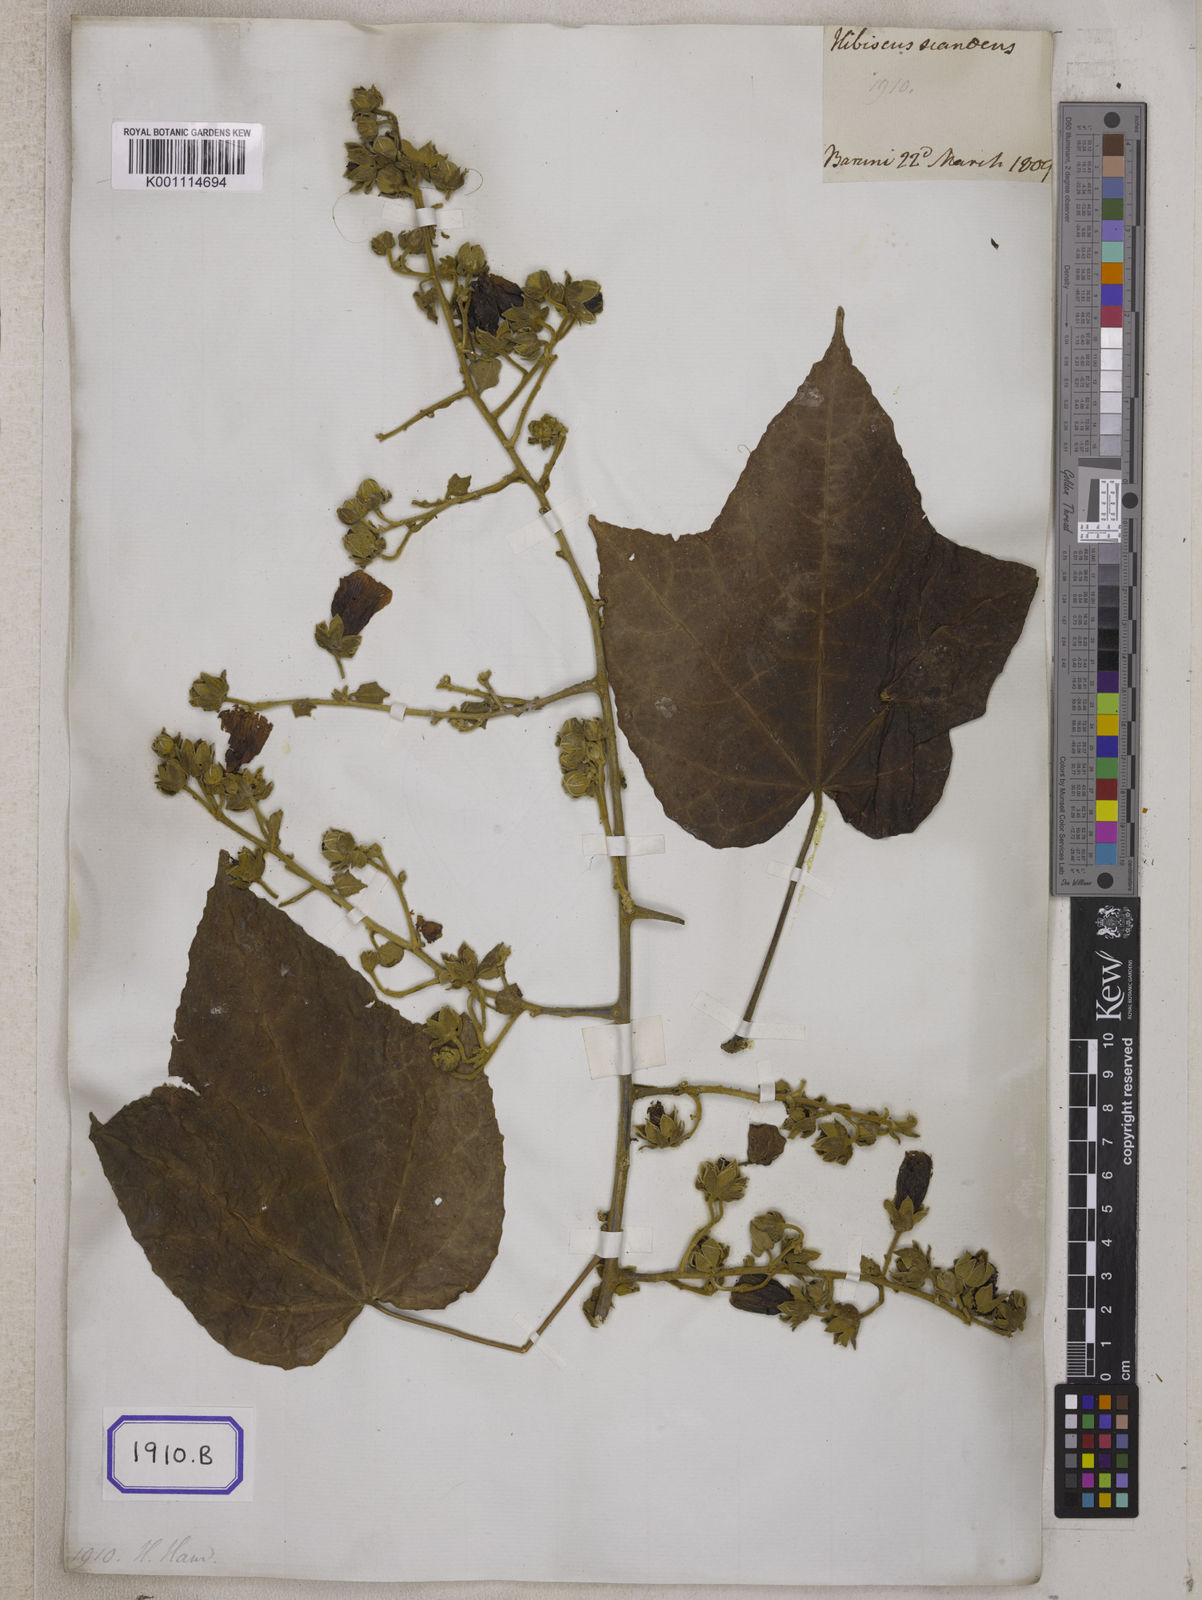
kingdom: Plantae
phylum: Tracheophyta
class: Magnoliopsida
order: Malvales
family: Malvaceae
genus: Hibiscus
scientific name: Hibiscus
